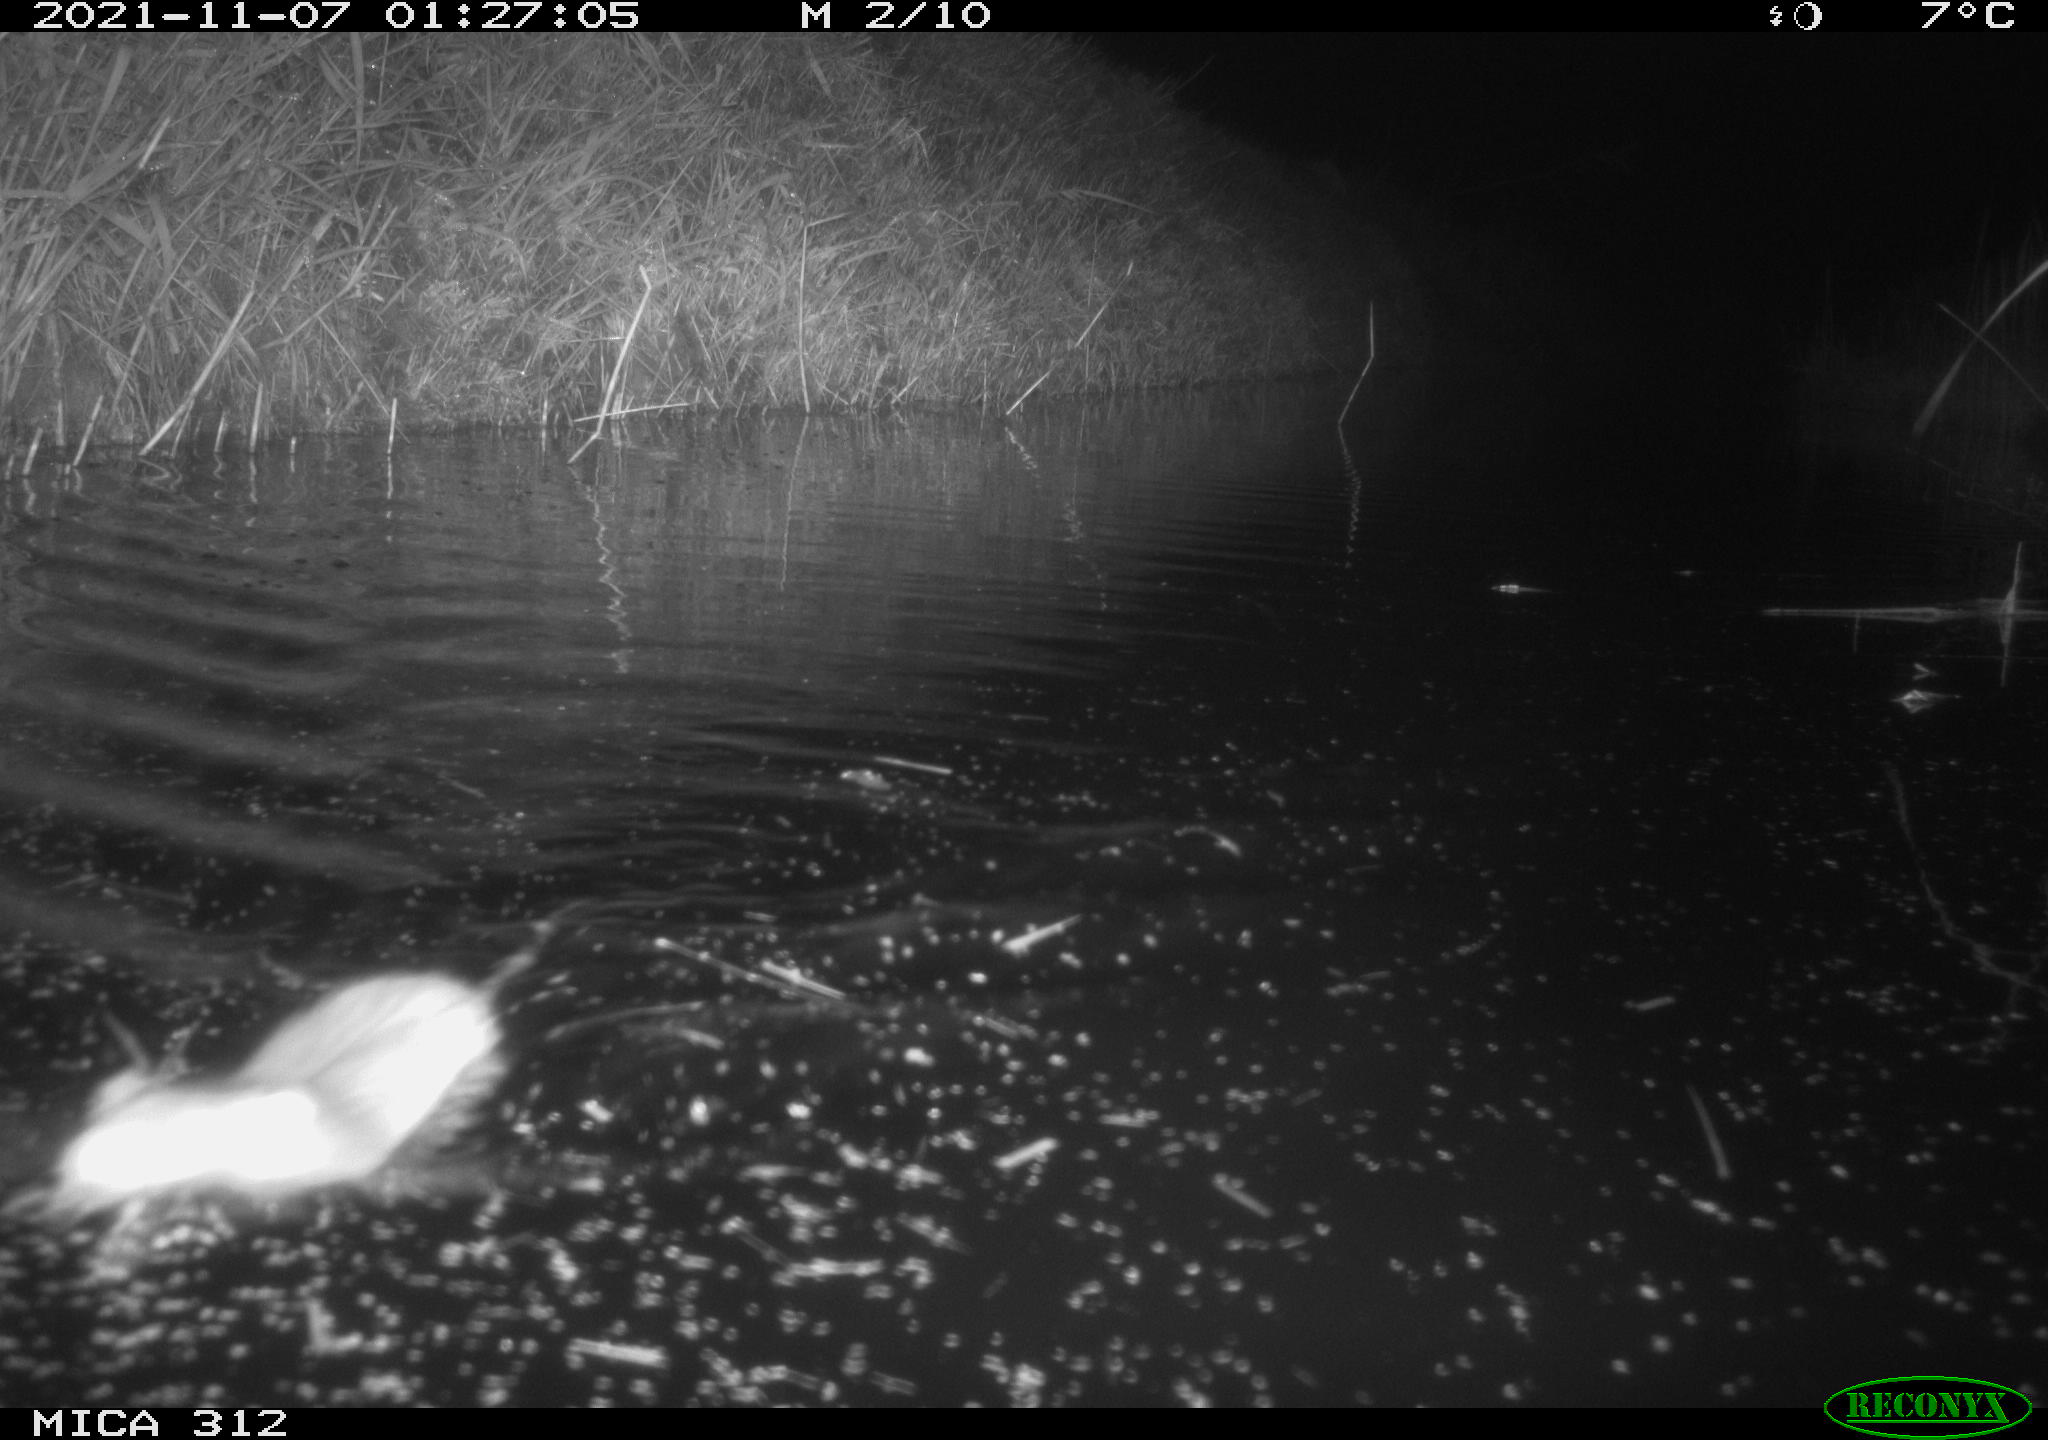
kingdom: Animalia
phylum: Chordata
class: Mammalia
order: Rodentia
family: Muridae
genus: Rattus
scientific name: Rattus norvegicus
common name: Brown rat
